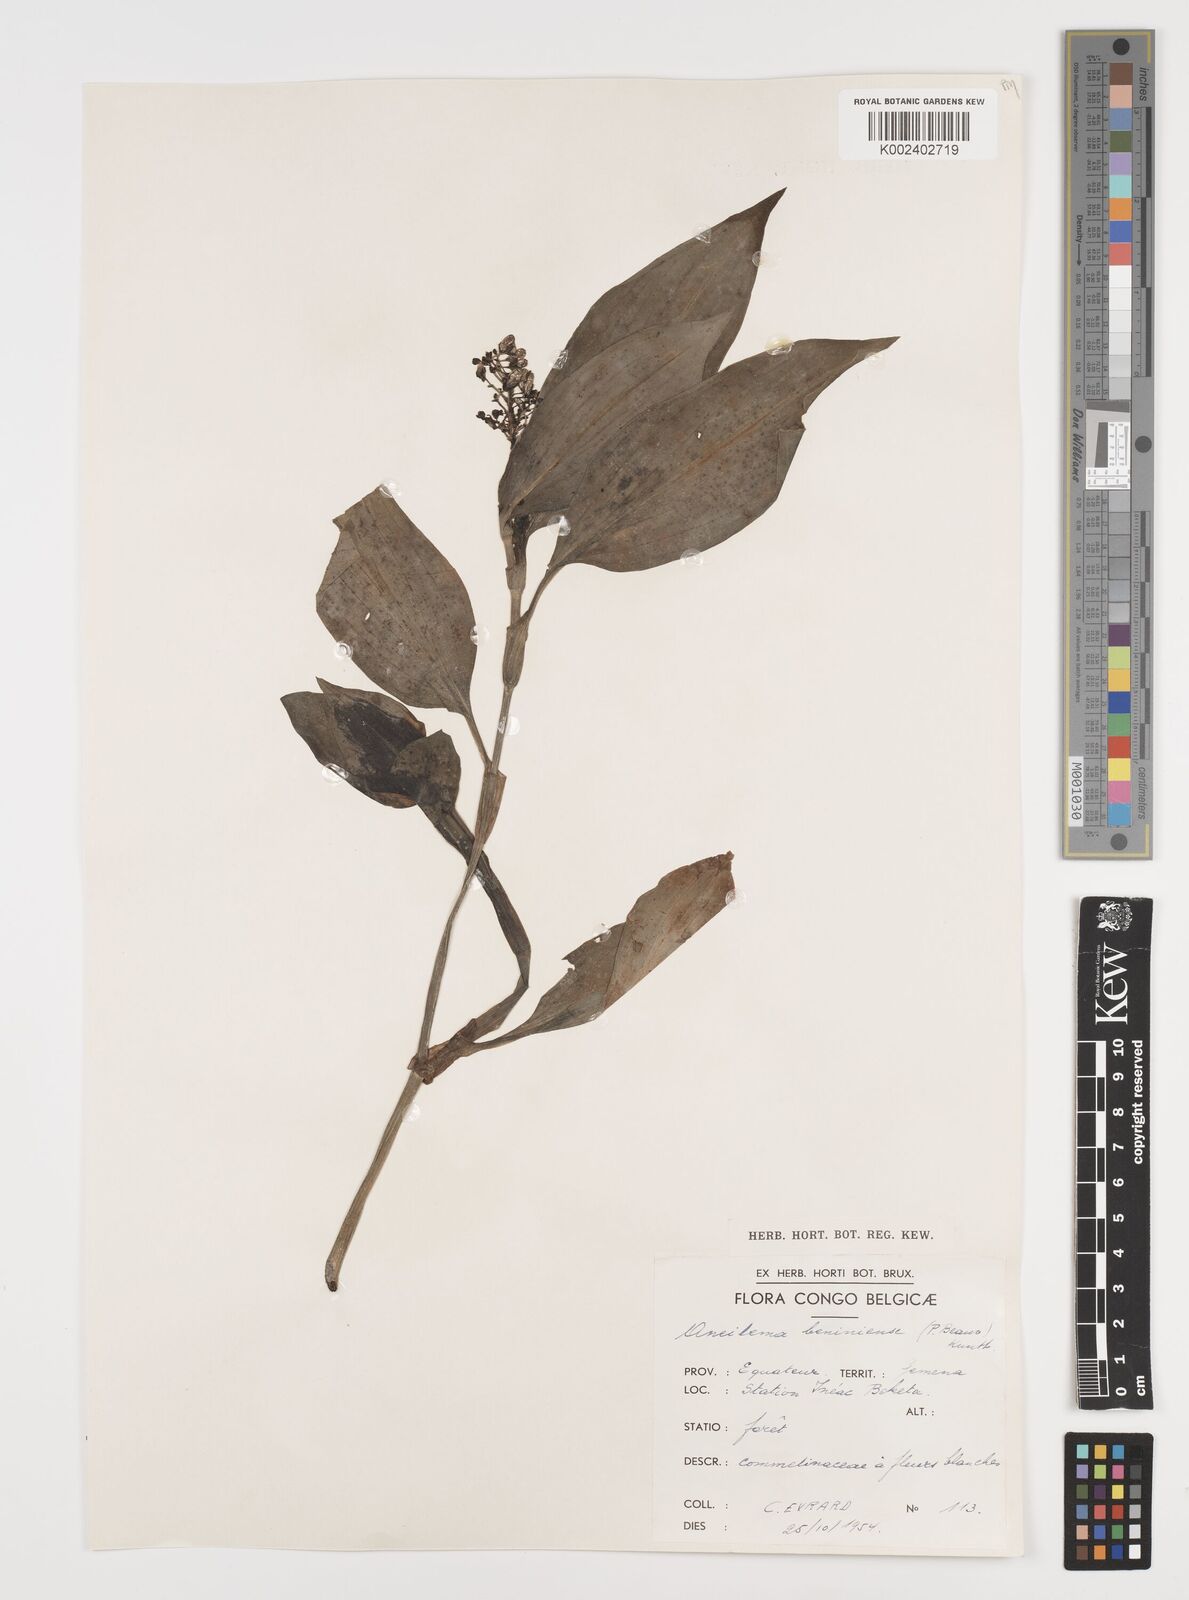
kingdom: Plantae
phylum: Tracheophyta
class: Liliopsida
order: Commelinales
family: Commelinaceae
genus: Aneilema
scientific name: Aneilema beniniense
